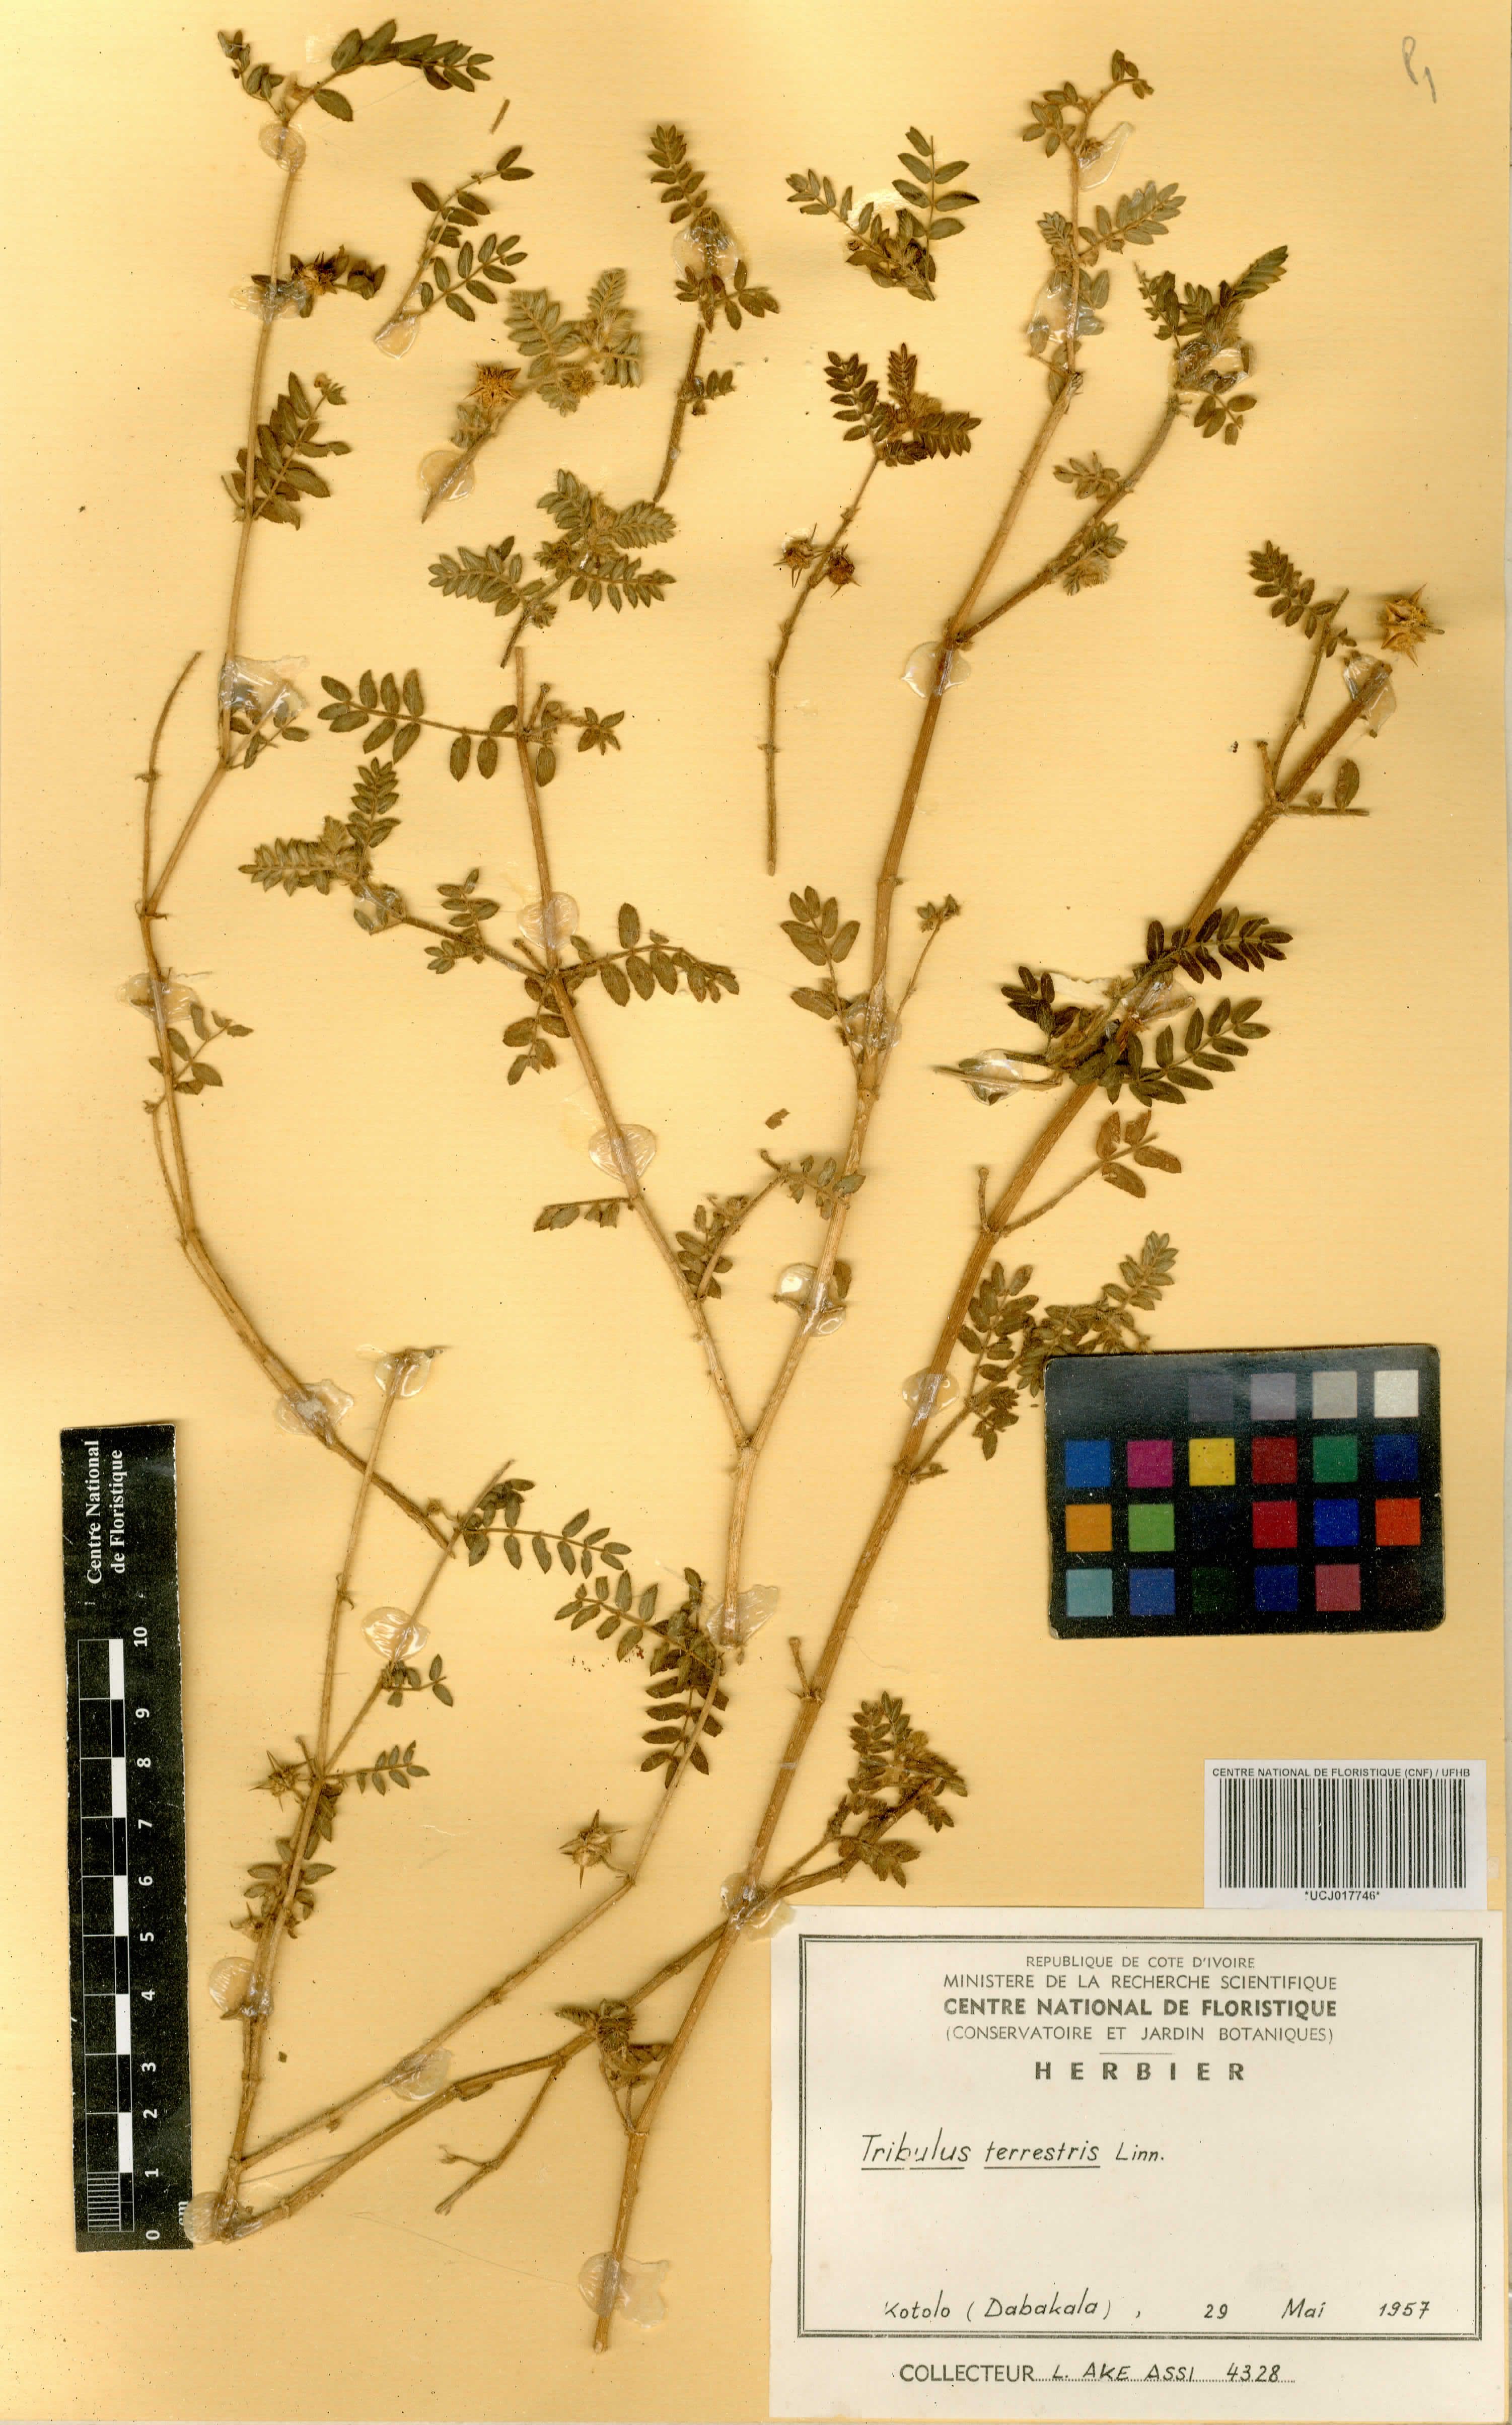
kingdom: Plantae
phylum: Tracheophyta
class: Magnoliopsida
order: Zygophyllales
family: Zygophyllaceae
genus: Tribulus
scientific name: Tribulus terrestris
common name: Puncturevine
